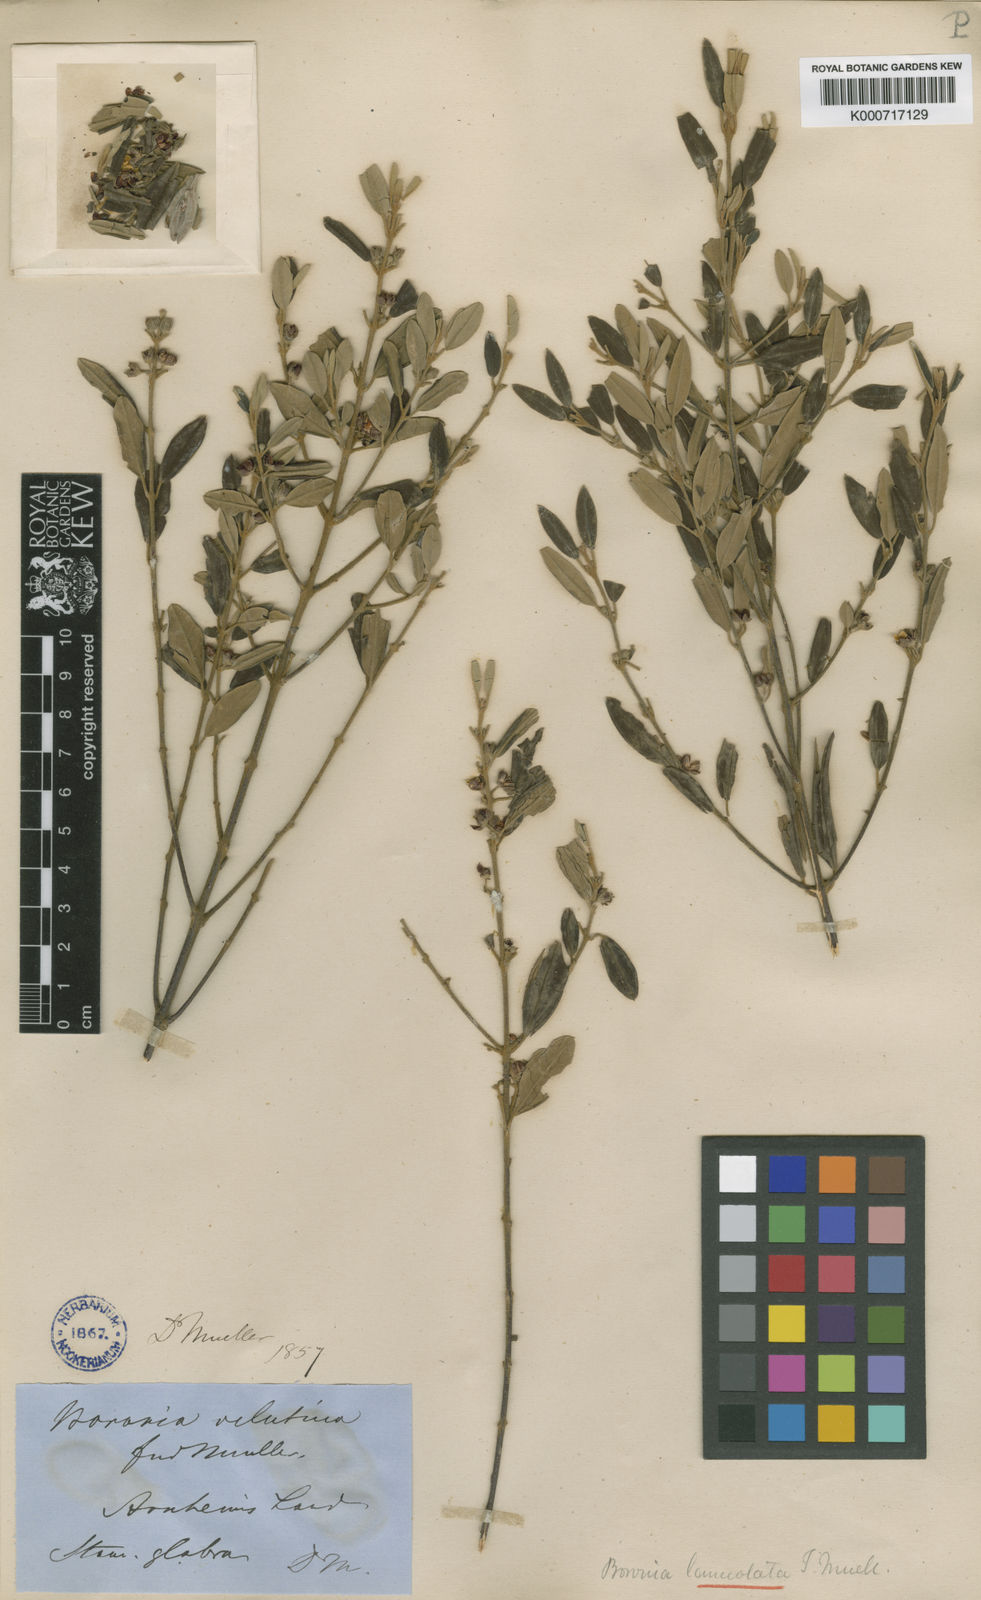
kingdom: Plantae
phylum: Tracheophyta
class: Magnoliopsida
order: Sapindales
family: Rutaceae
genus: Boronia
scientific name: Boronia lanceolata
